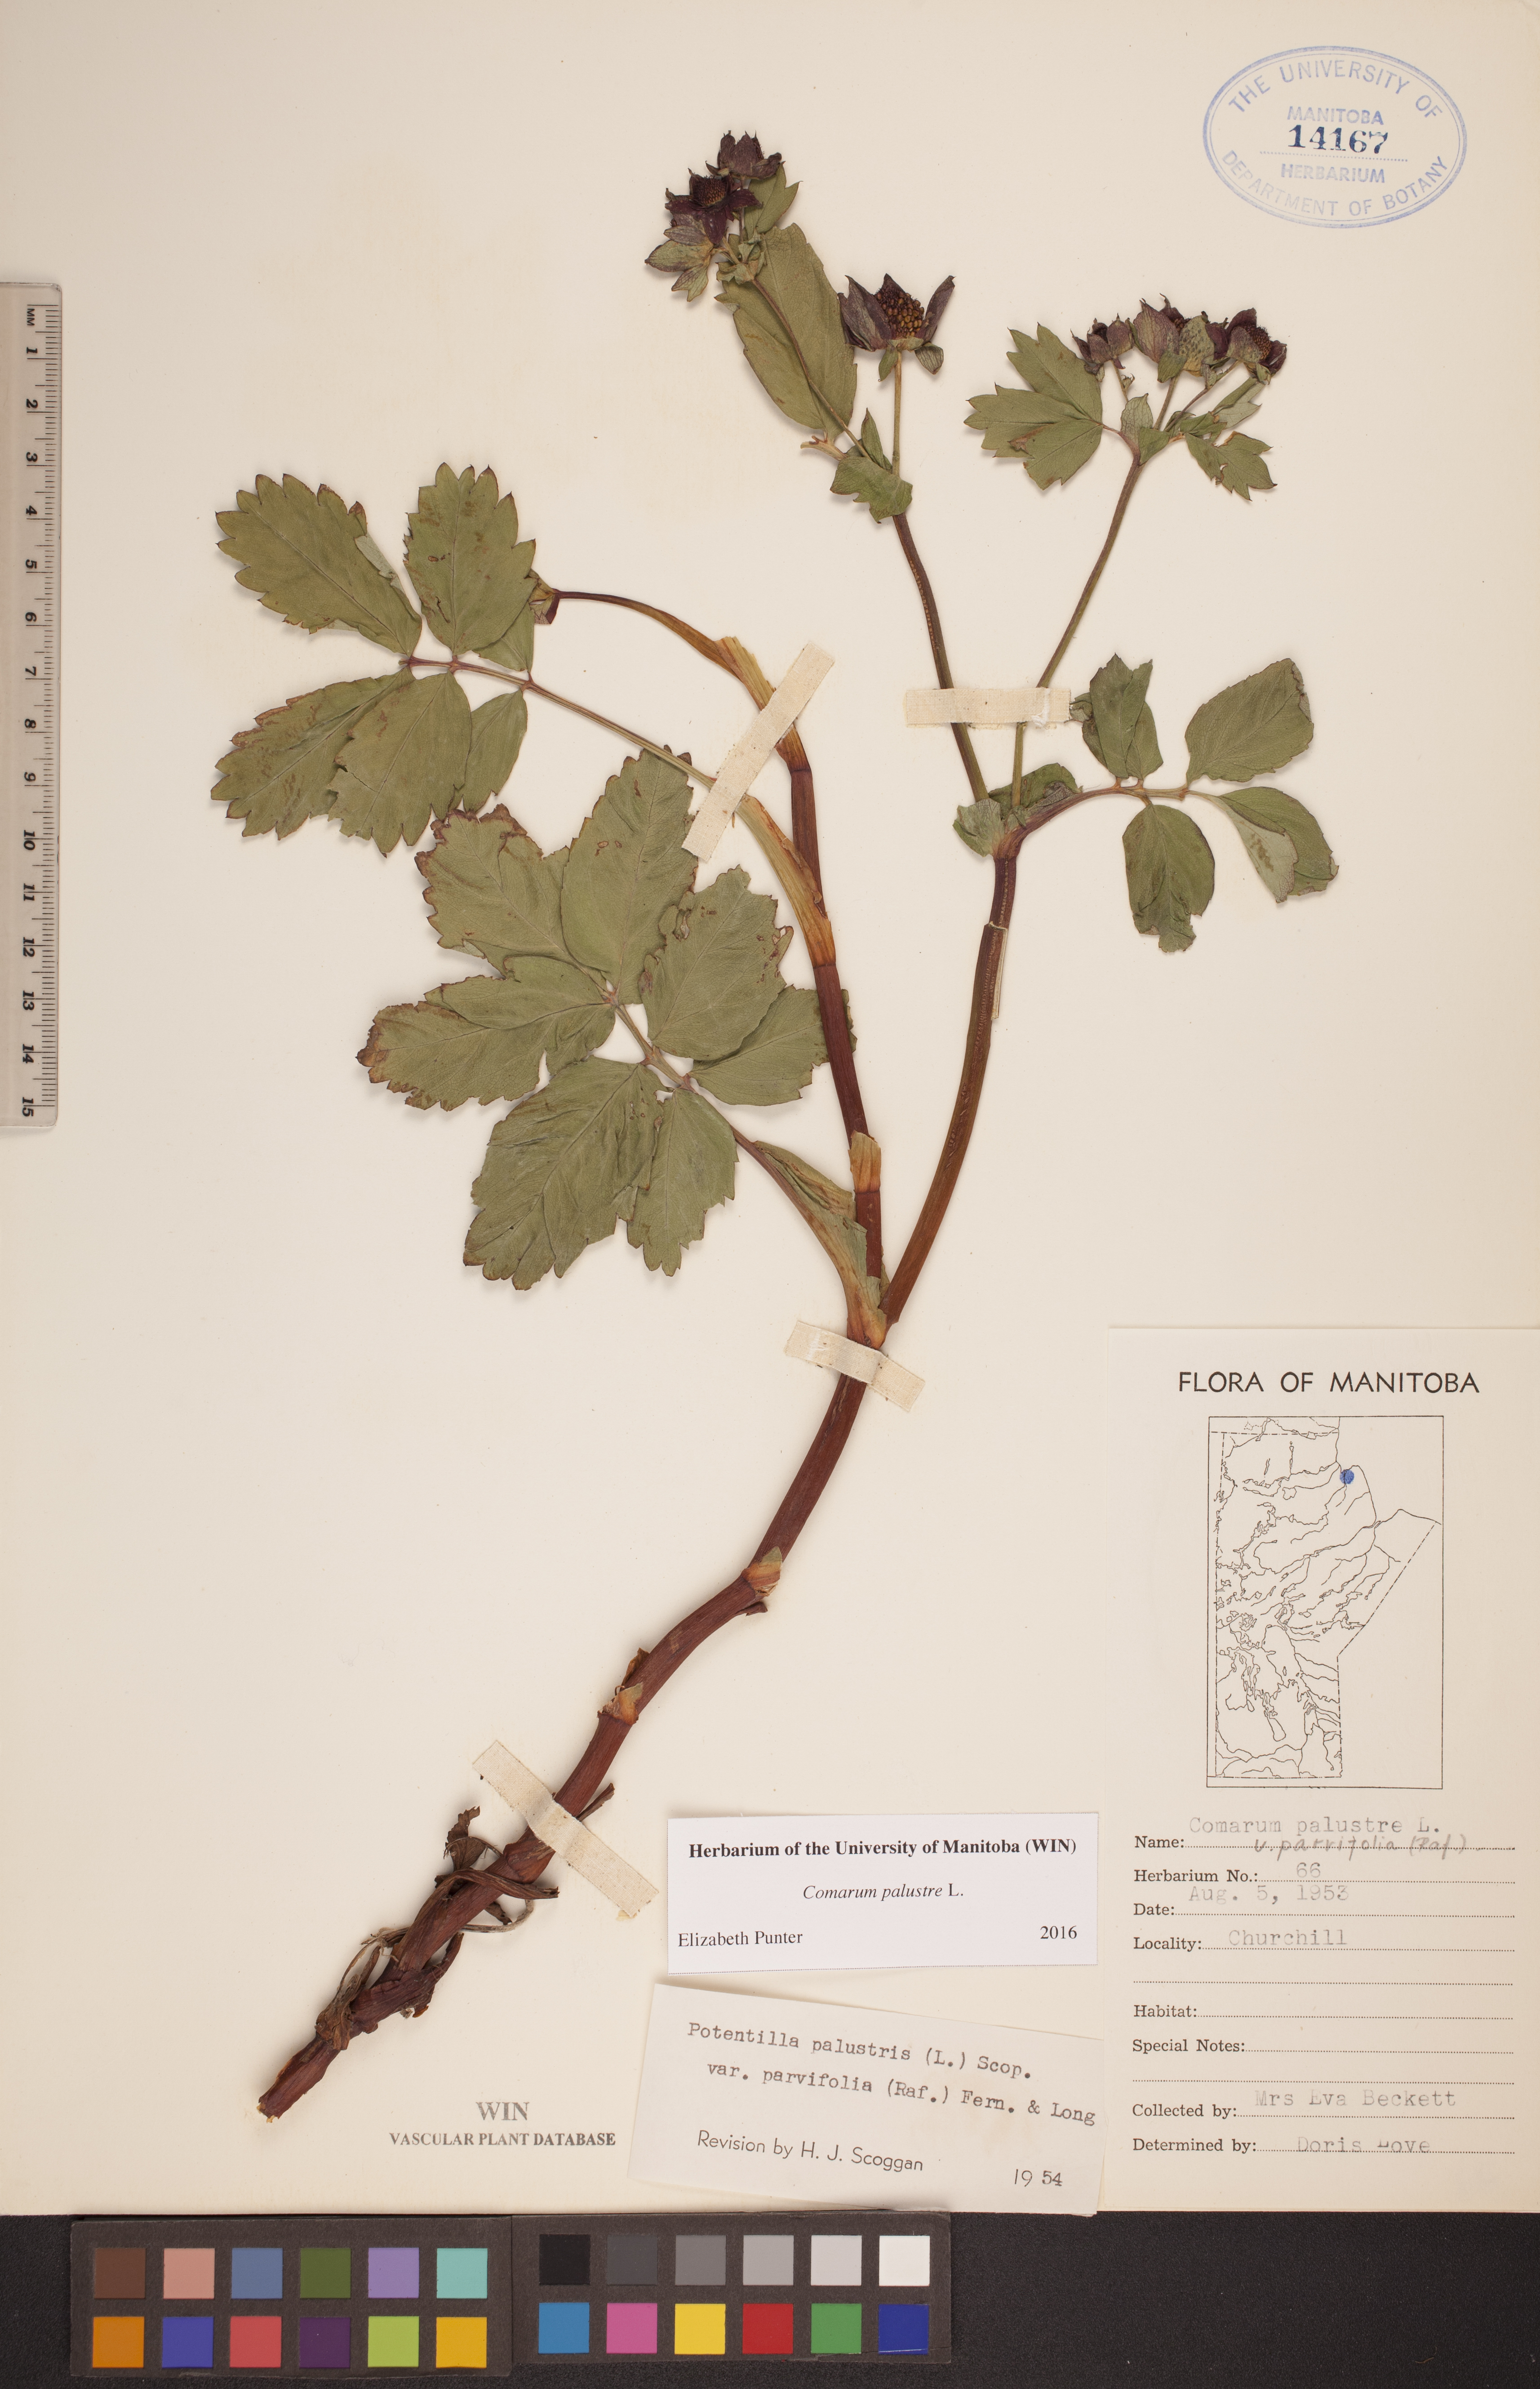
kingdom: Plantae
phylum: Tracheophyta
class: Magnoliopsida
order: Rosales
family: Rosaceae
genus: Comarum
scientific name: Comarum palustre
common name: Marsh cinquefoil
